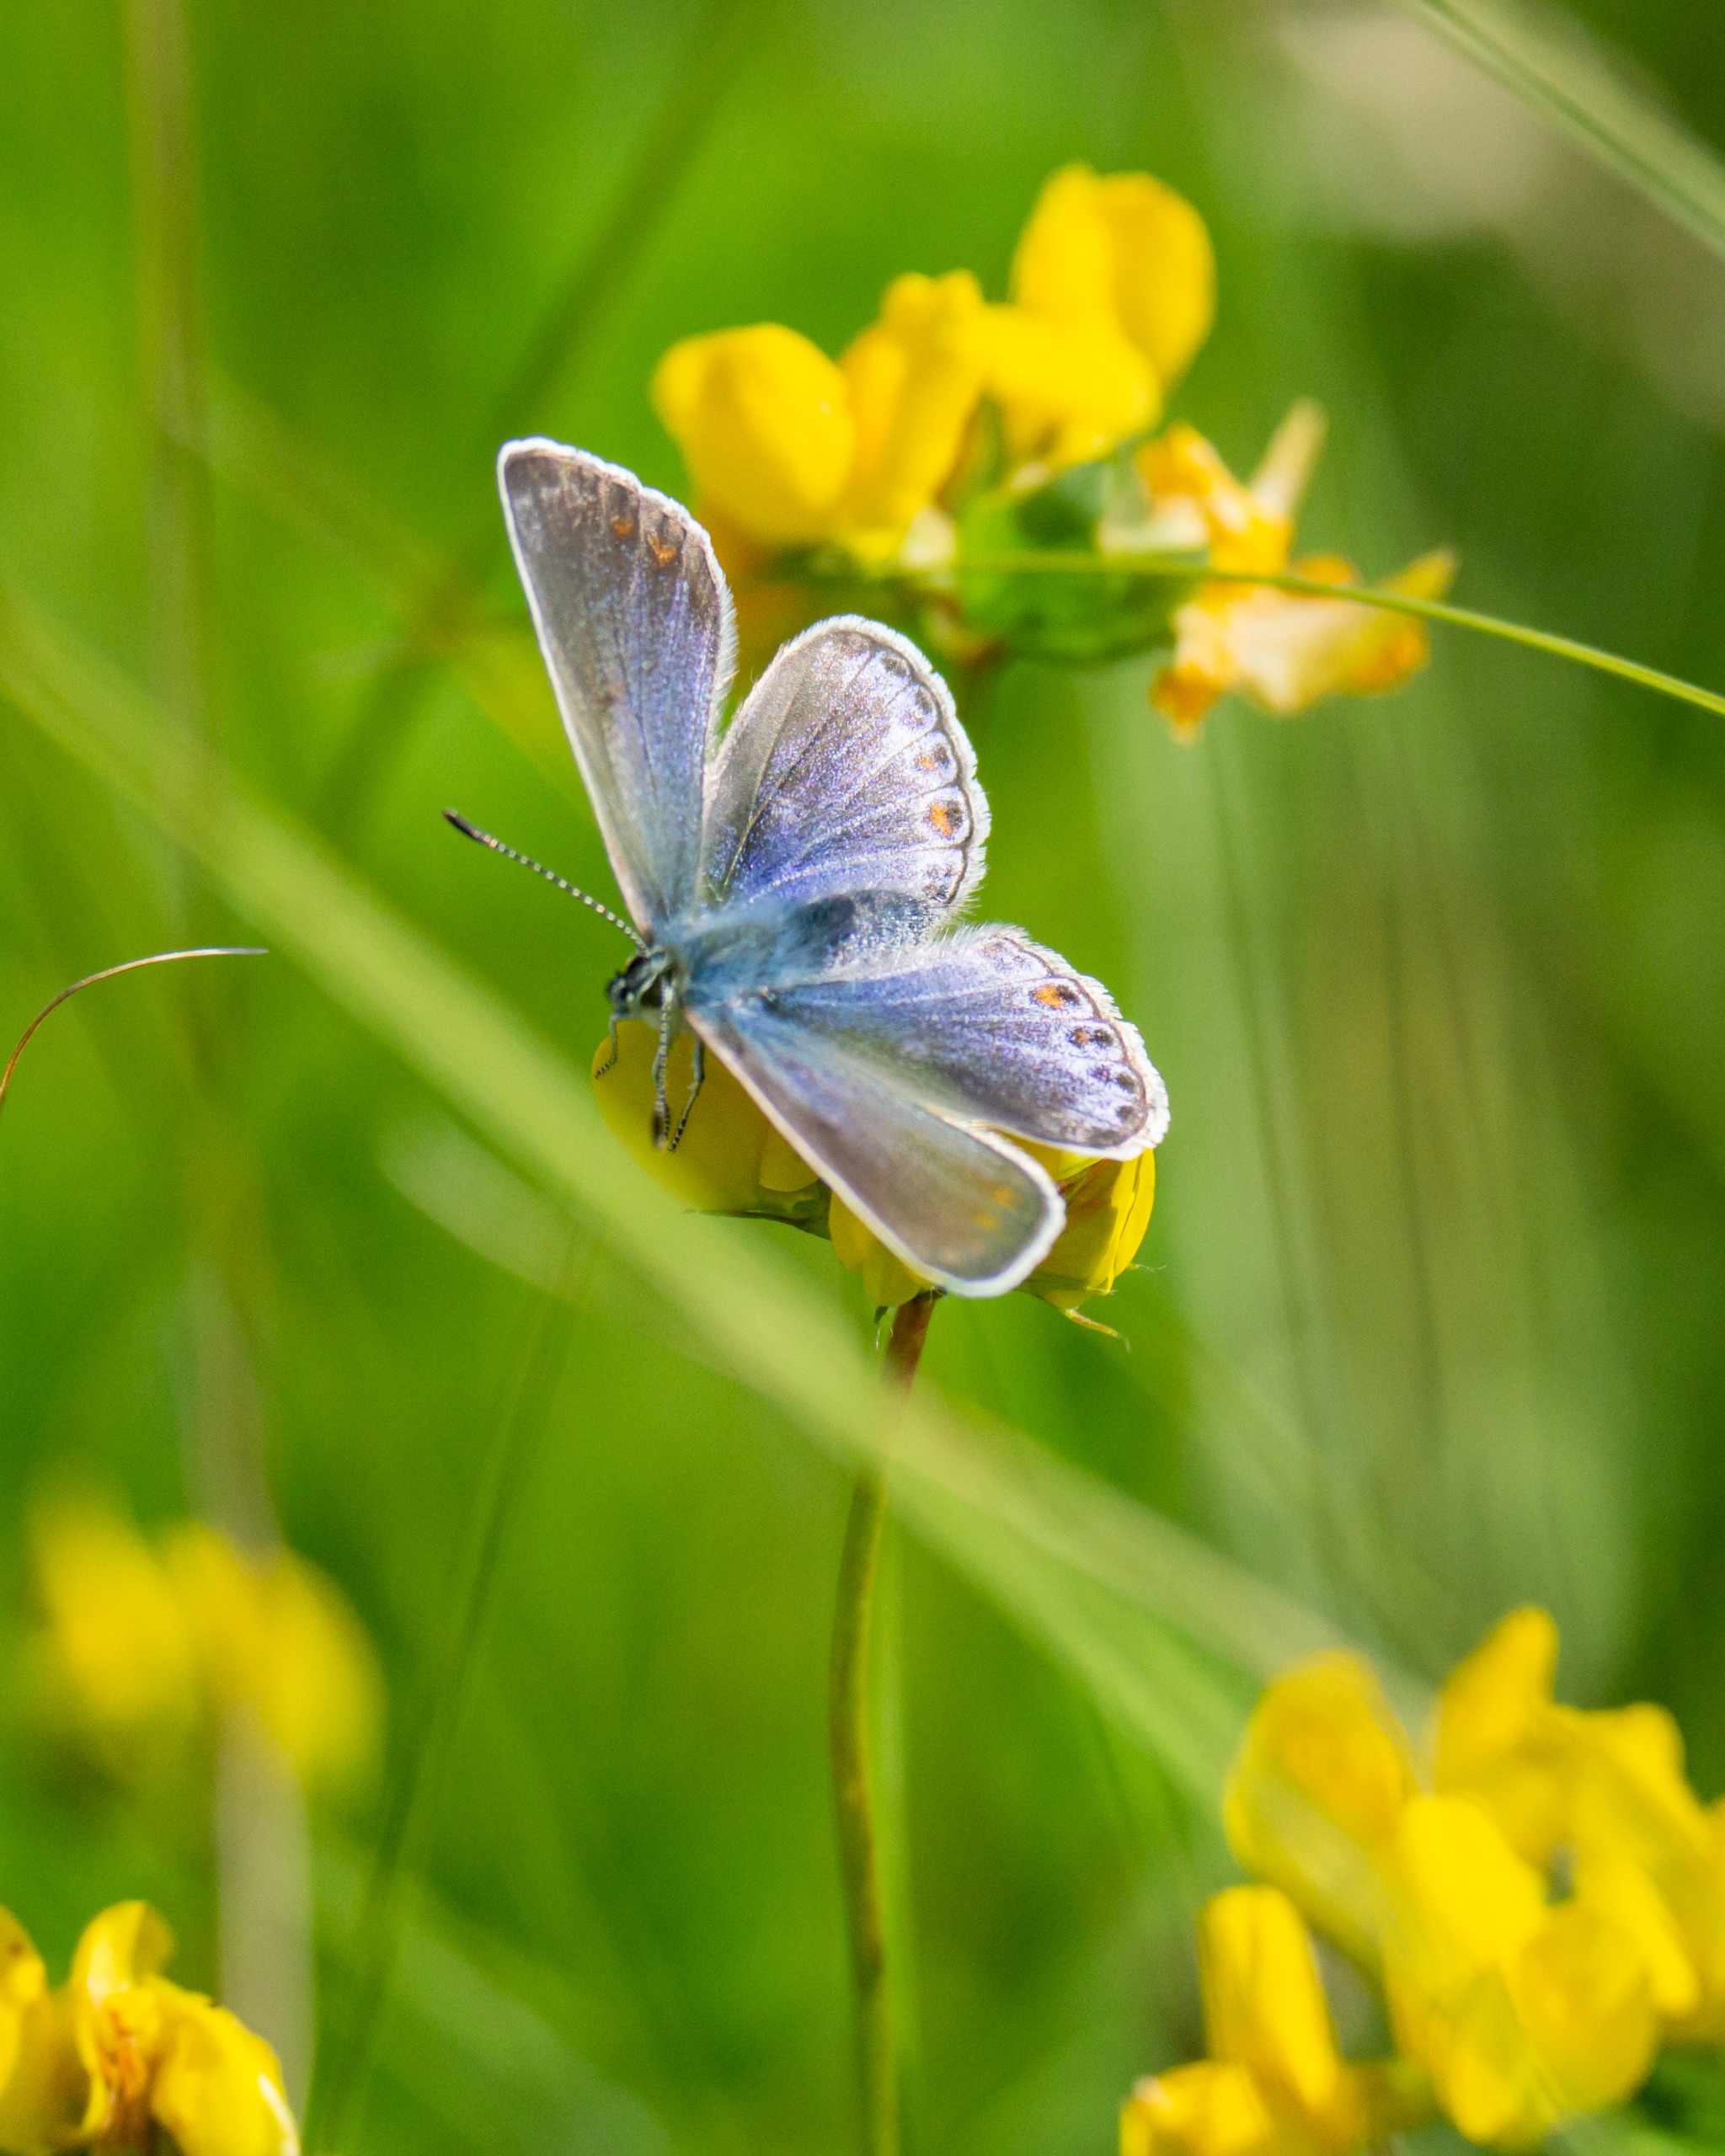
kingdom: Animalia
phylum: Arthropoda
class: Insecta
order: Lepidoptera
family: Lycaenidae
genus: Polyommatus
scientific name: Polyommatus icarus
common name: Almindelig blåfugl
